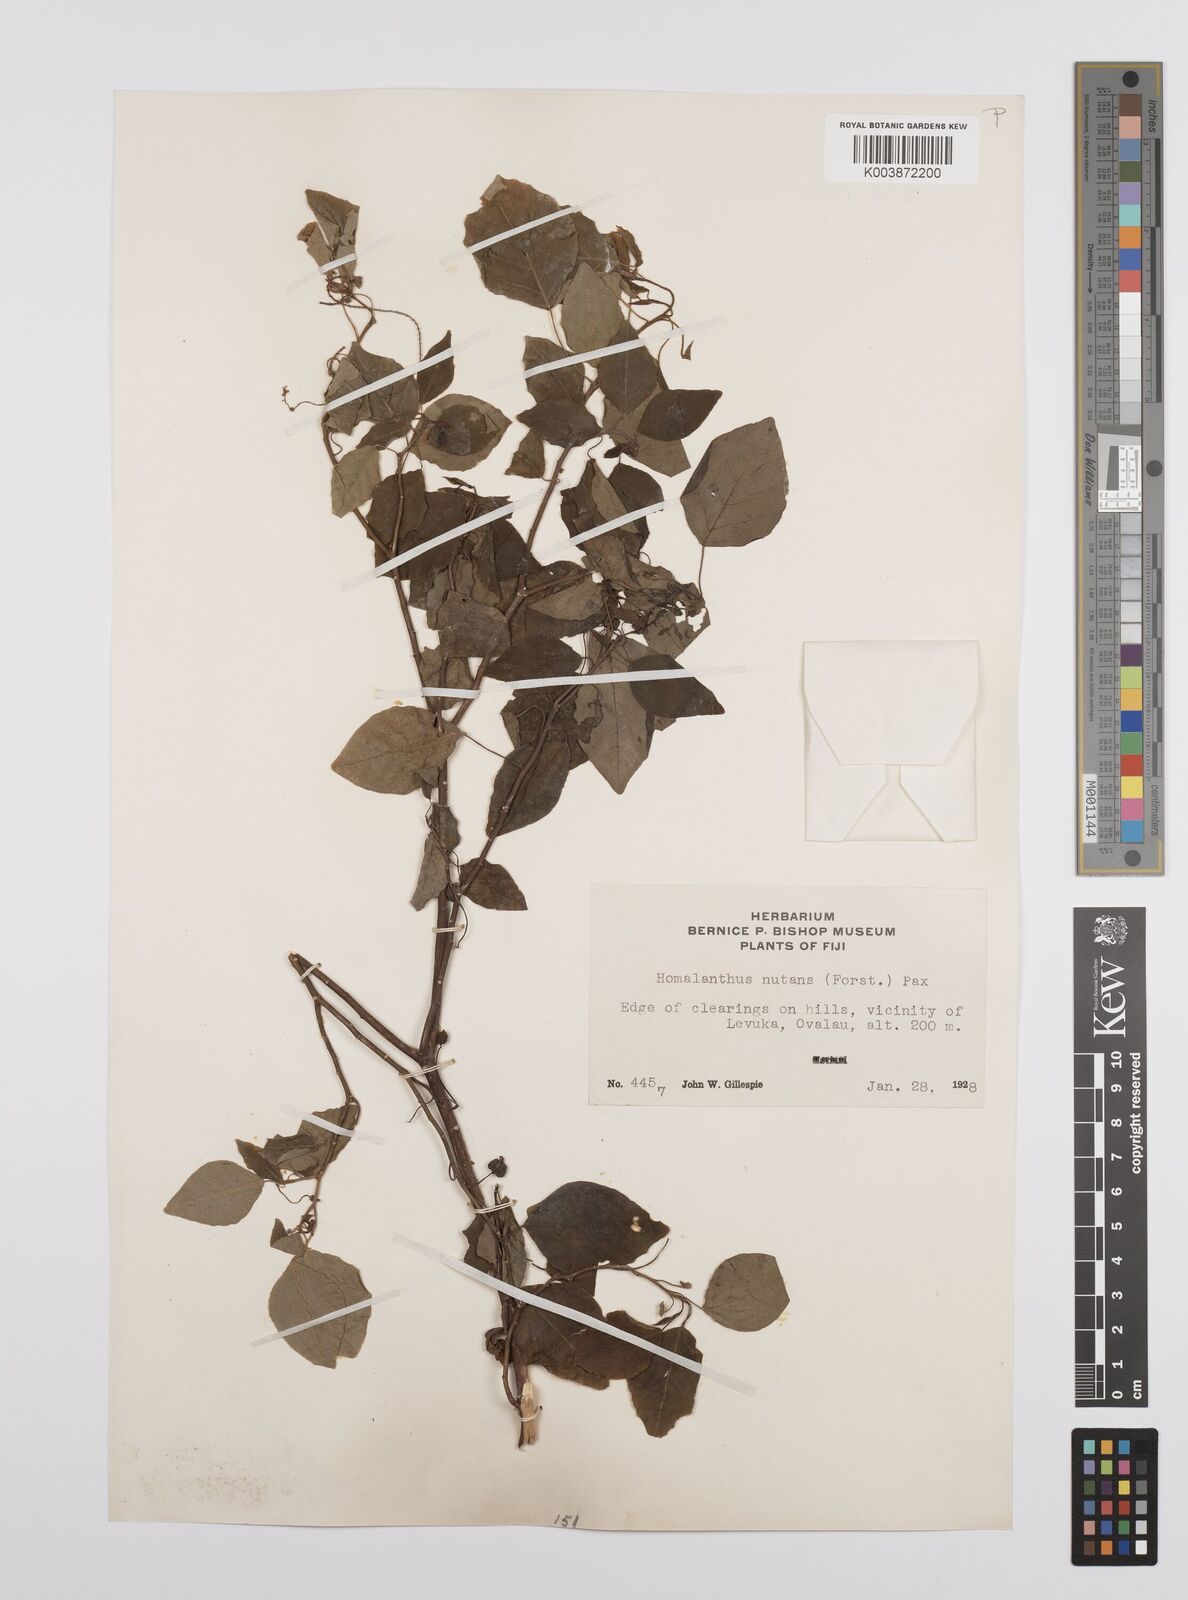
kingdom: Plantae
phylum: Tracheophyta
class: Magnoliopsida
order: Malpighiales
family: Euphorbiaceae
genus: Homalanthus
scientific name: Homalanthus nutans
